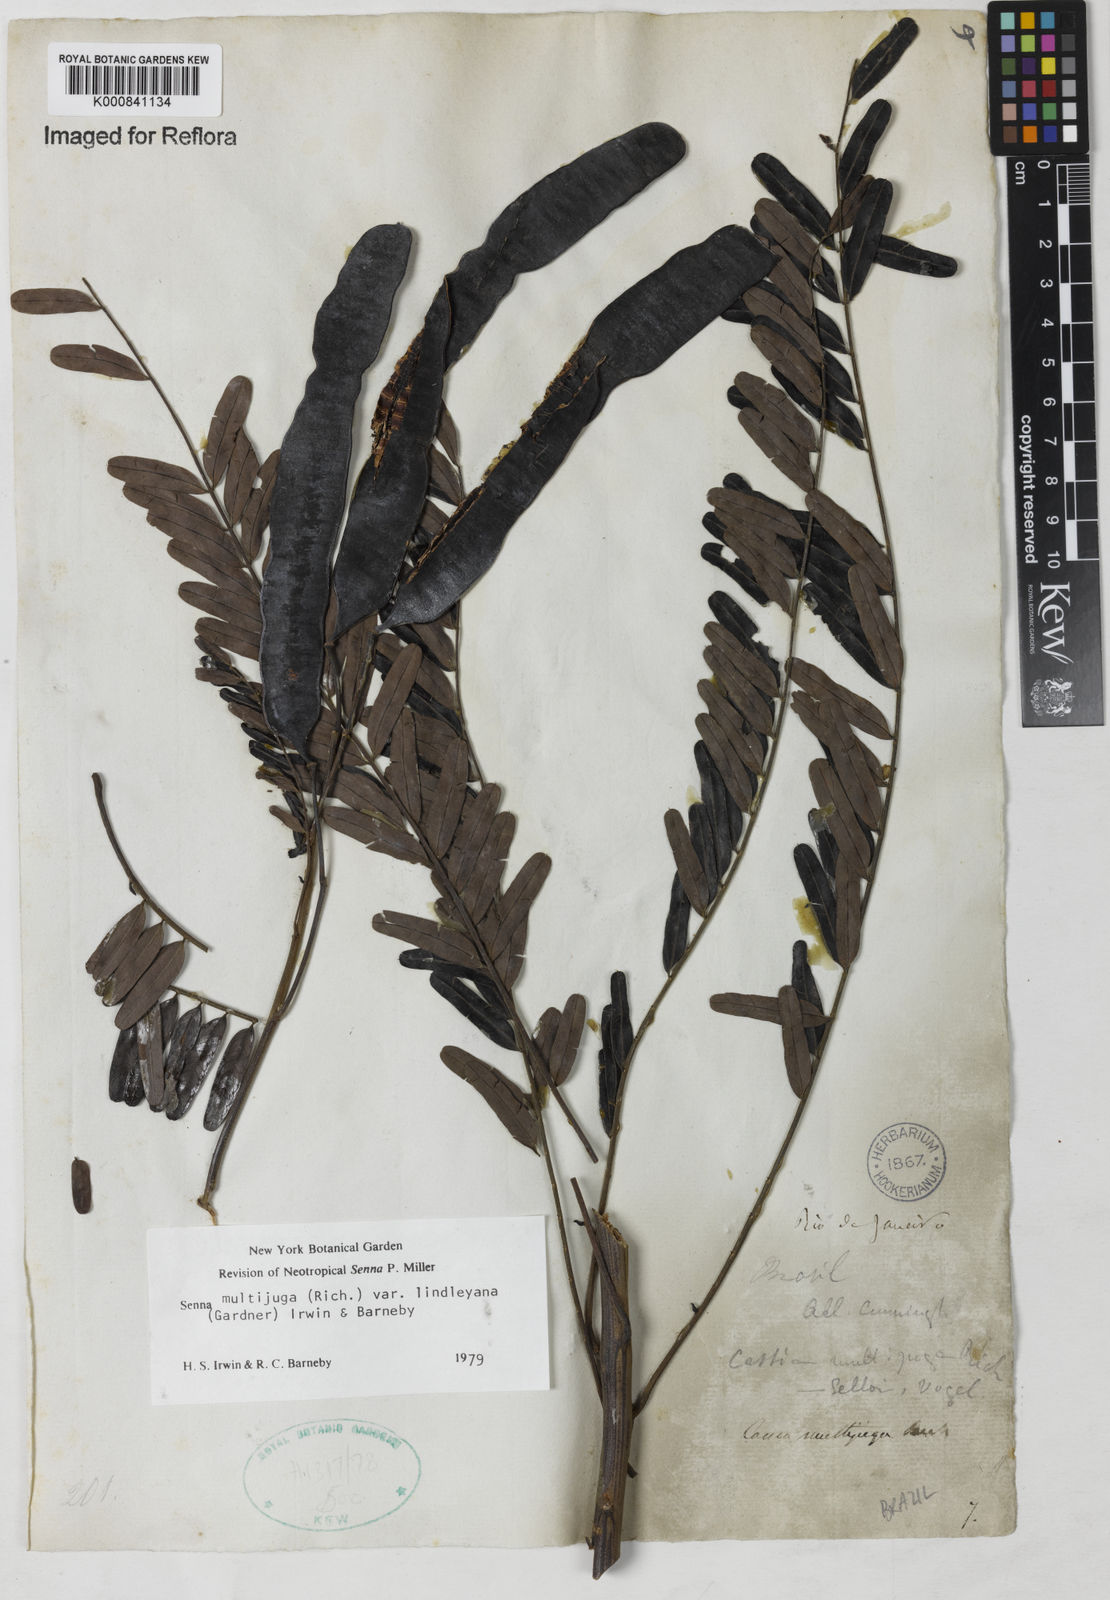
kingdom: Plantae
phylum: Tracheophyta
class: Magnoliopsida
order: Fabales
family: Fabaceae
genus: Senna
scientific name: Senna multijuga
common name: False sicklepod
